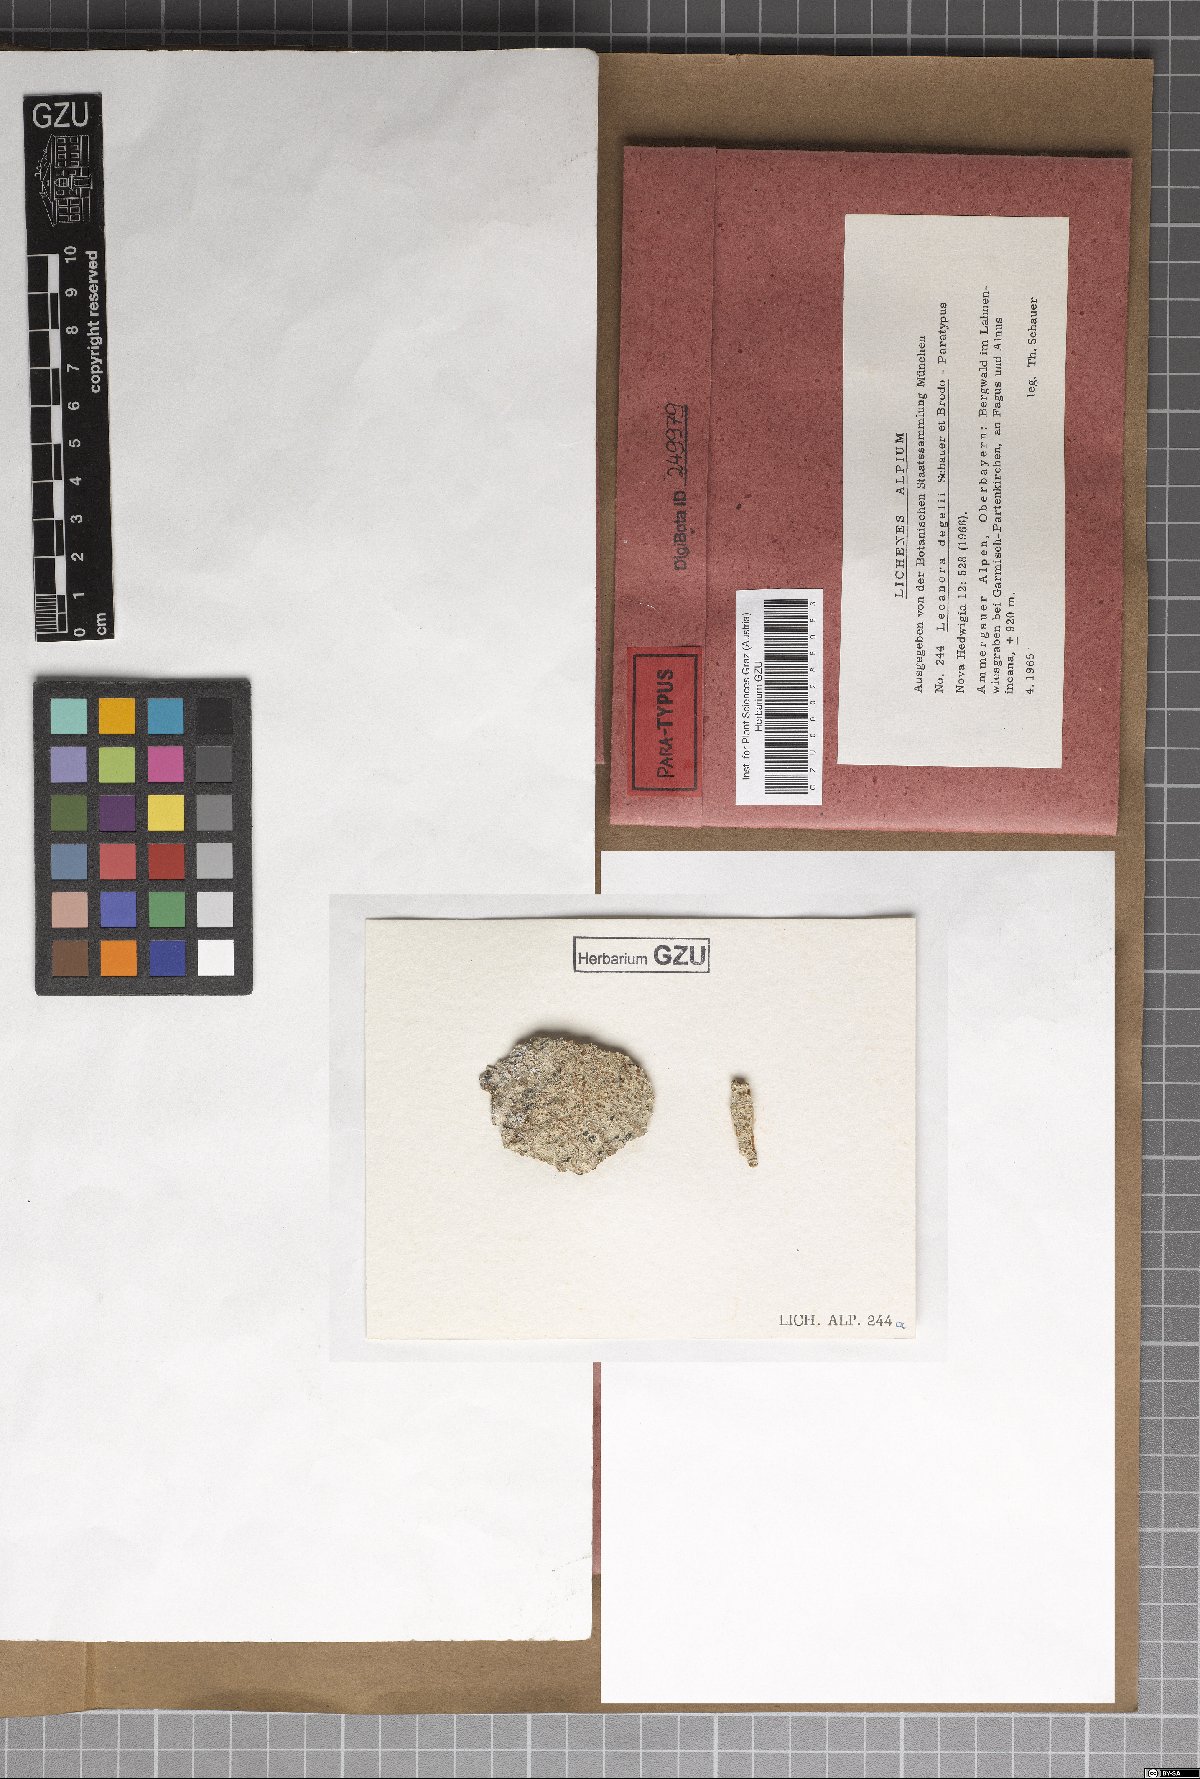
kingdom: Fungi
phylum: Ascomycota
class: Lecanoromycetes
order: Lecanorales
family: Lecanoraceae
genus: Protoparmeliopsis
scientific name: Protoparmeliopsis degelii
